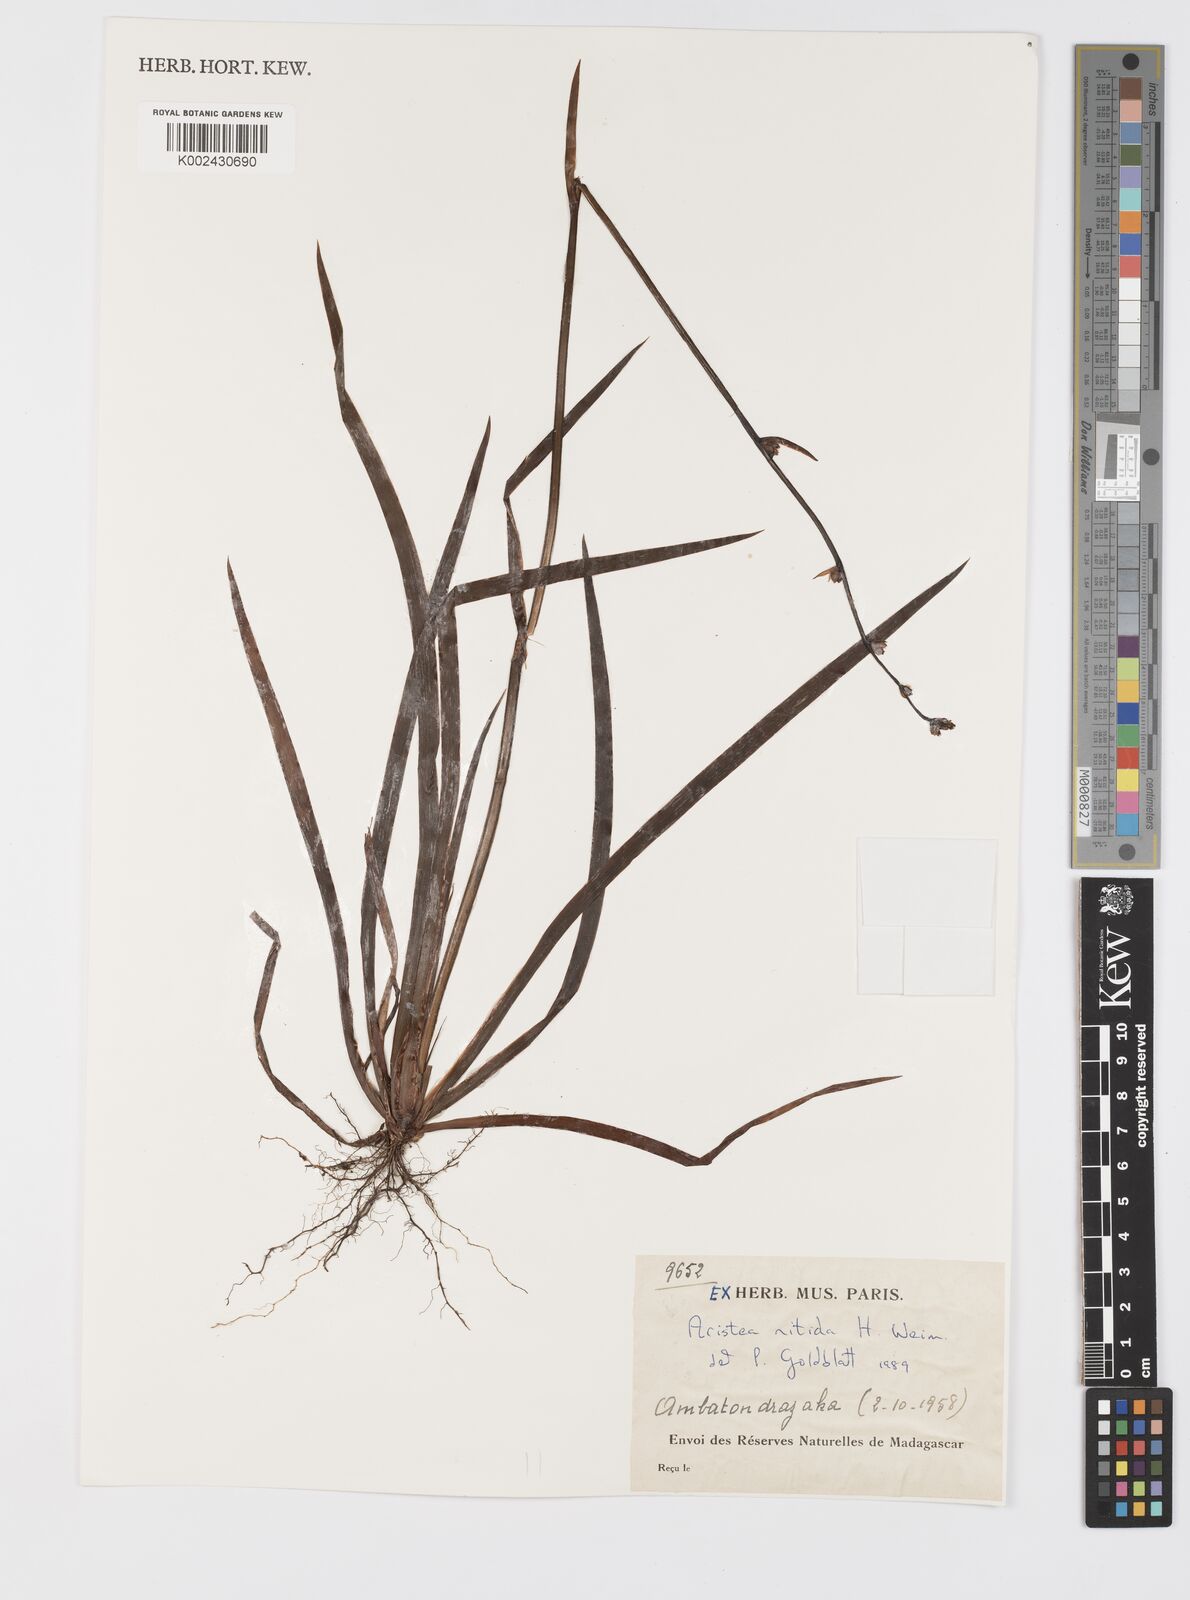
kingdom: Plantae
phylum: Tracheophyta
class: Liliopsida
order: Asparagales
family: Iridaceae
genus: Aristea
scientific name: Aristea goetzei
